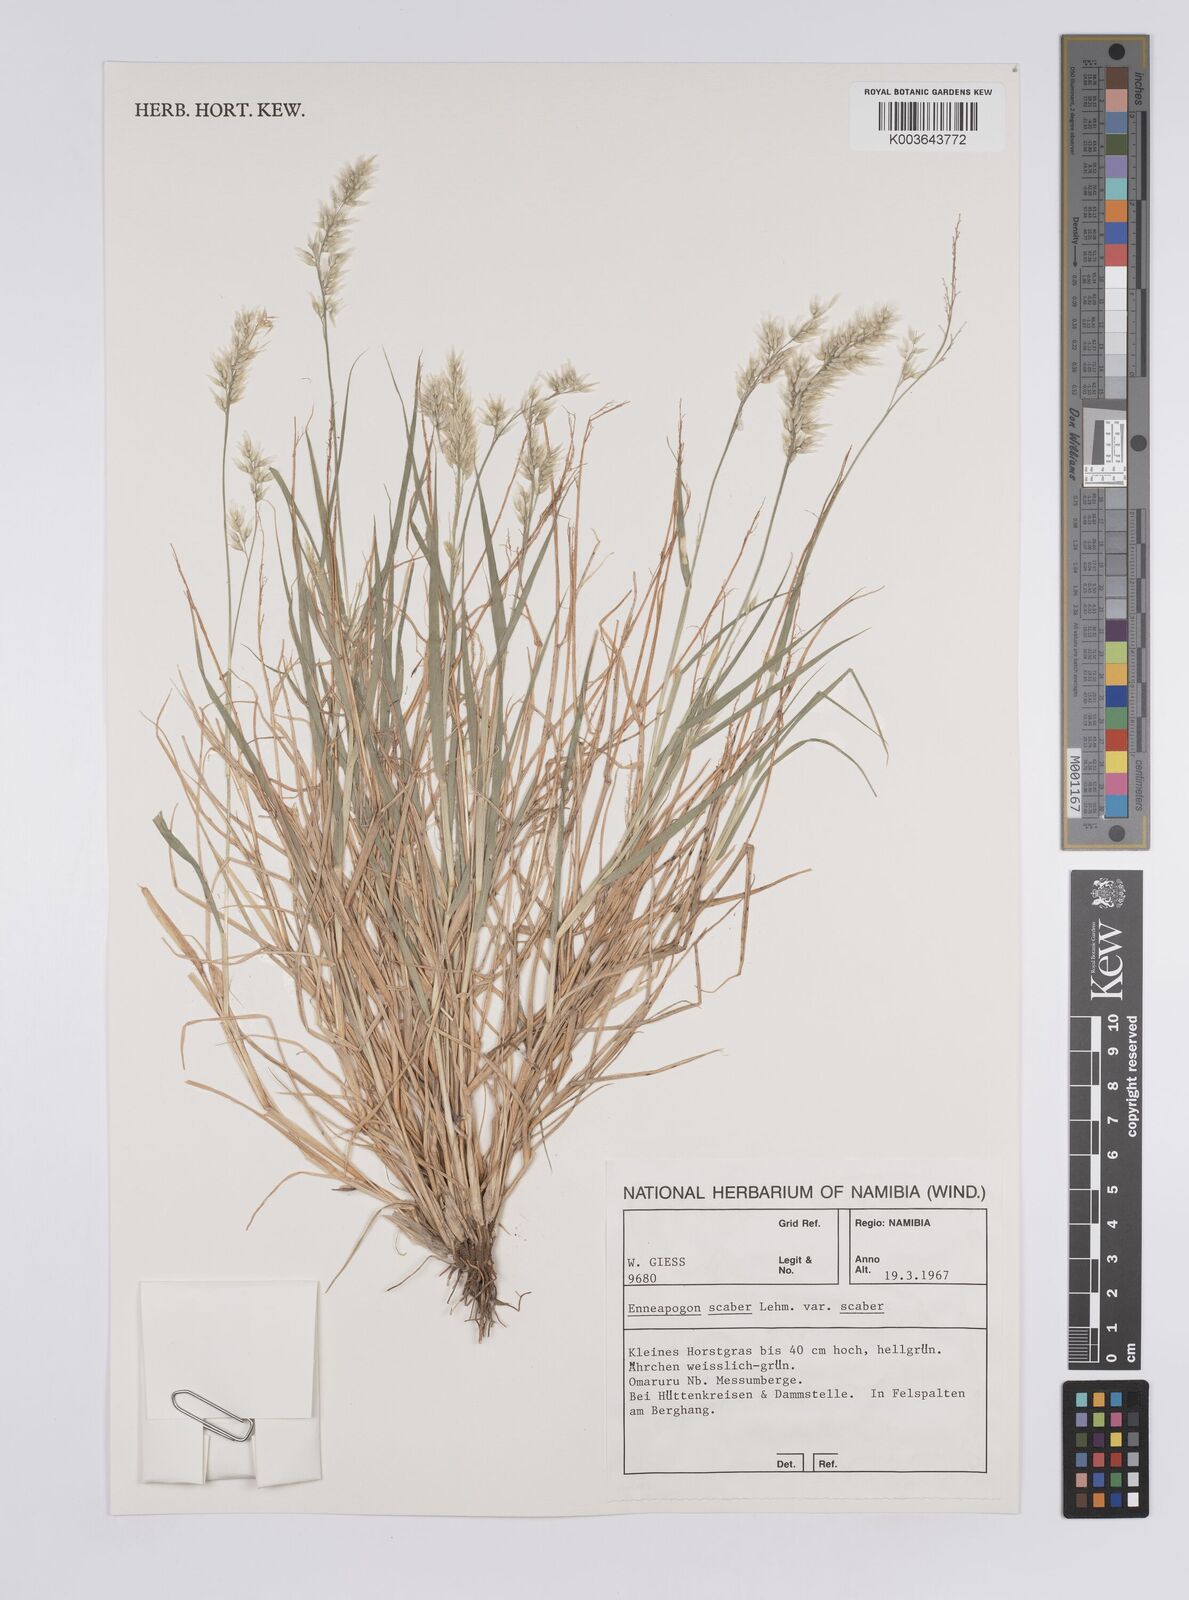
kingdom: Plantae
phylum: Tracheophyta
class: Liliopsida
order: Poales
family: Poaceae
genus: Enneapogon
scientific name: Enneapogon scaber
